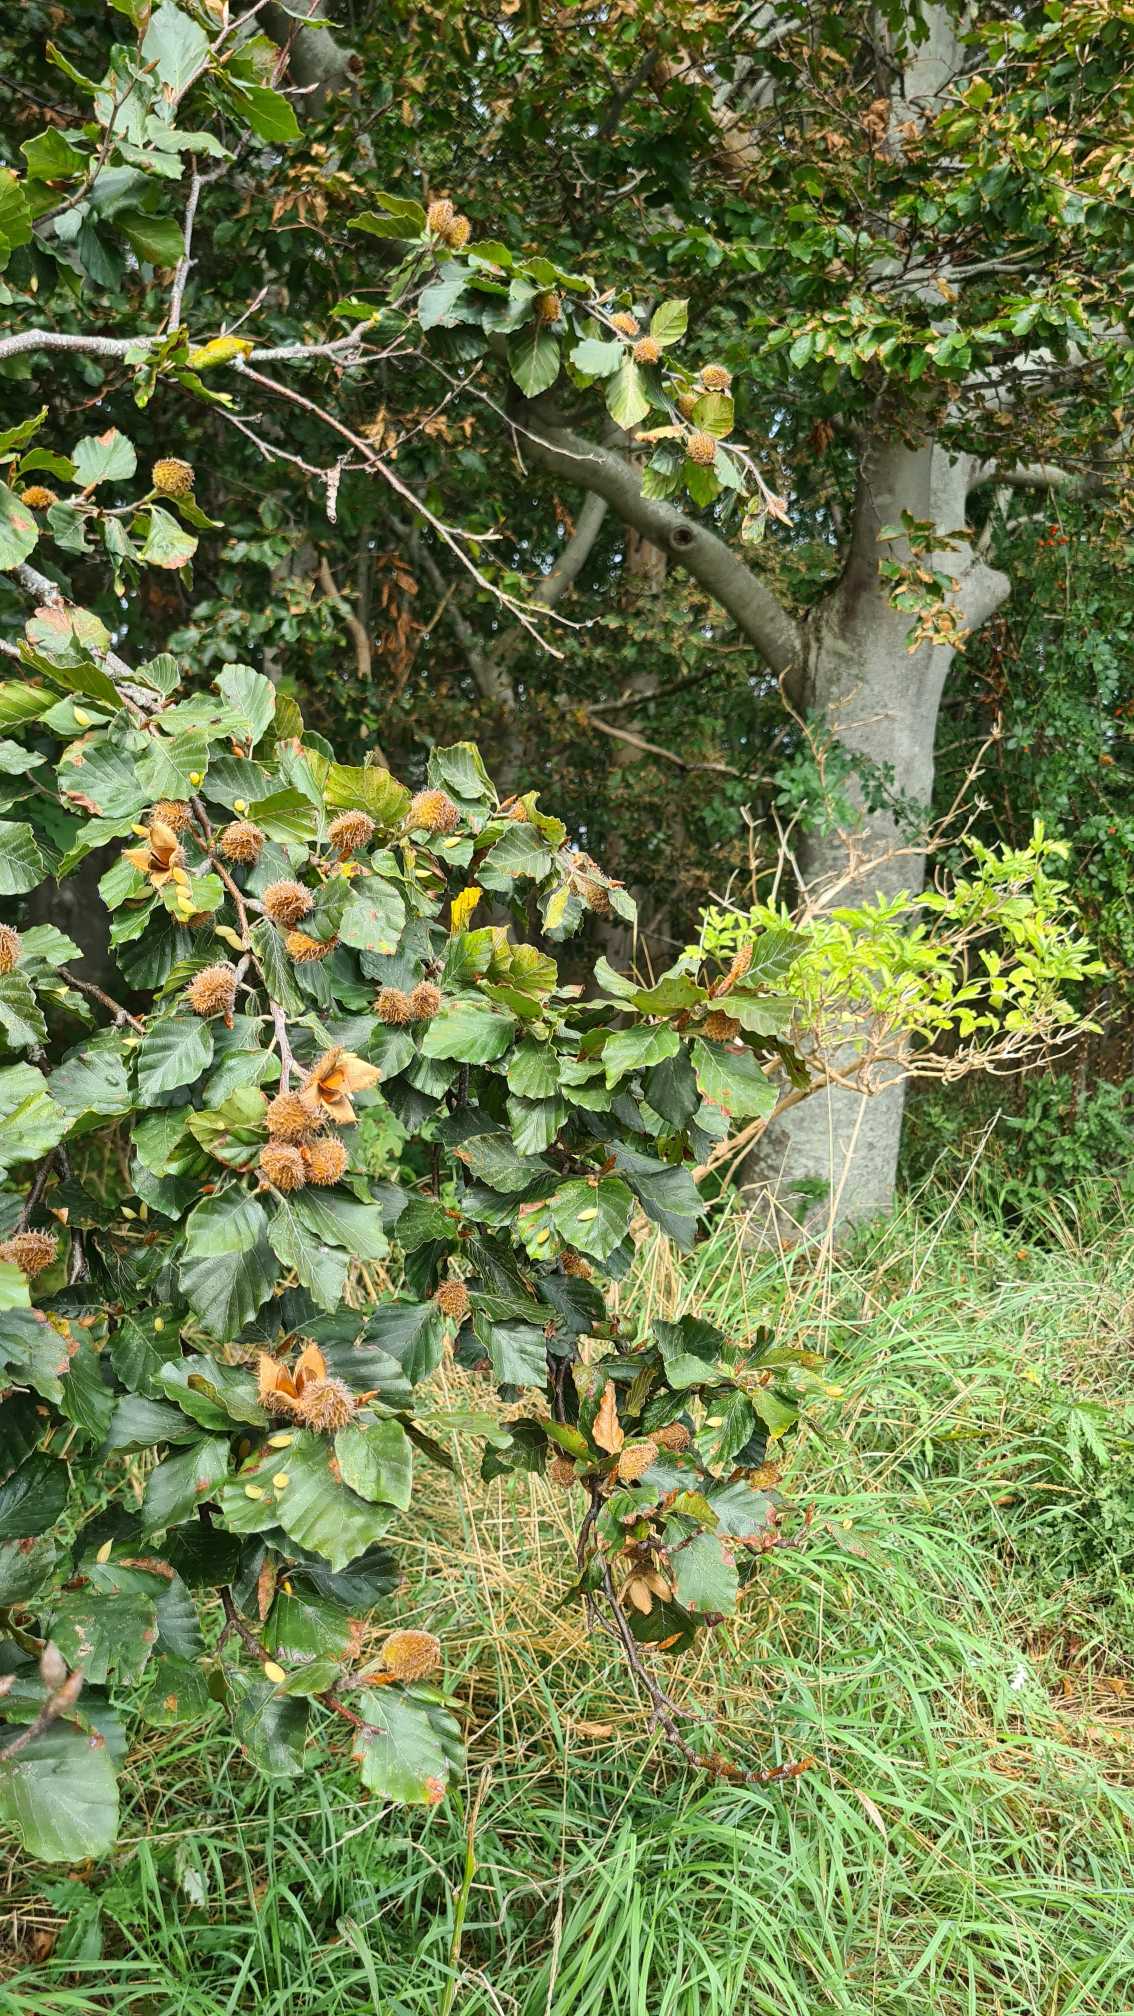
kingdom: Plantae
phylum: Tracheophyta
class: Magnoliopsida
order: Fagales
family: Fagaceae
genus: Fagus
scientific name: Fagus sylvatica
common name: Bøg
